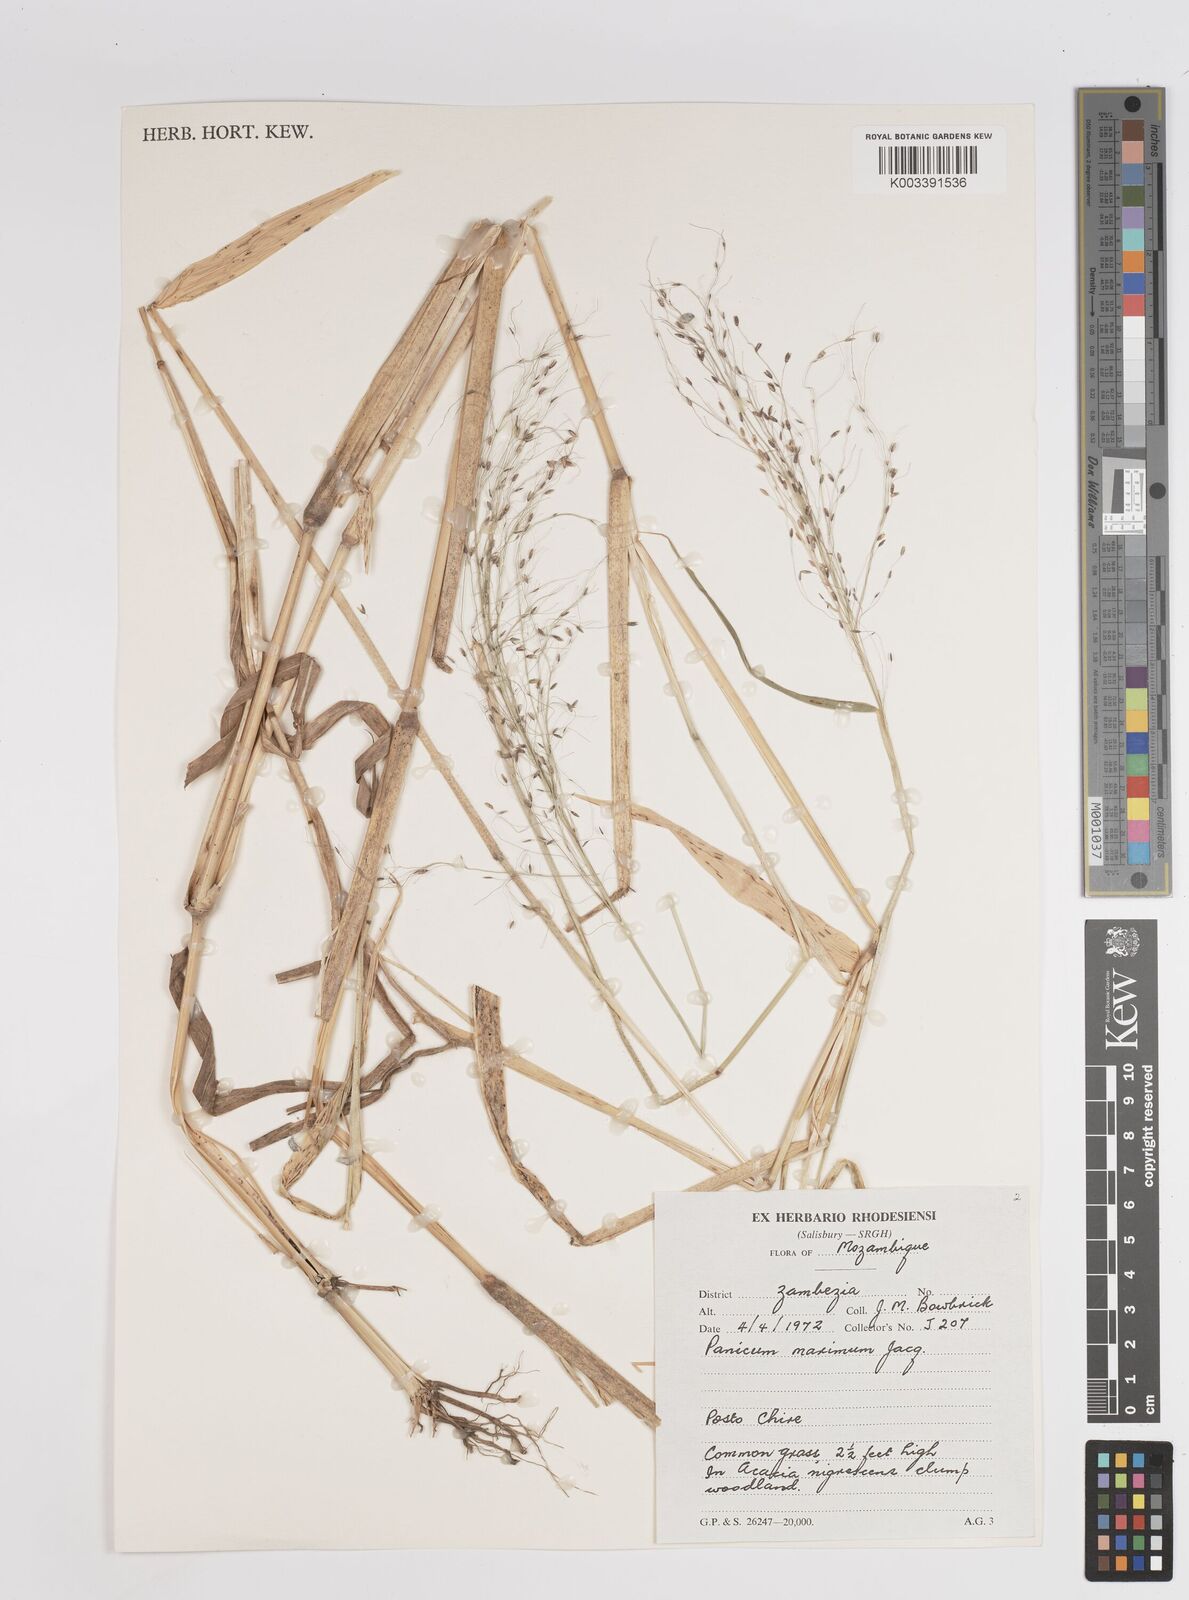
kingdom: Plantae
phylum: Tracheophyta
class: Liliopsida
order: Poales
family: Poaceae
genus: Megathyrsus
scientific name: Megathyrsus maximus
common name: Guineagrass
